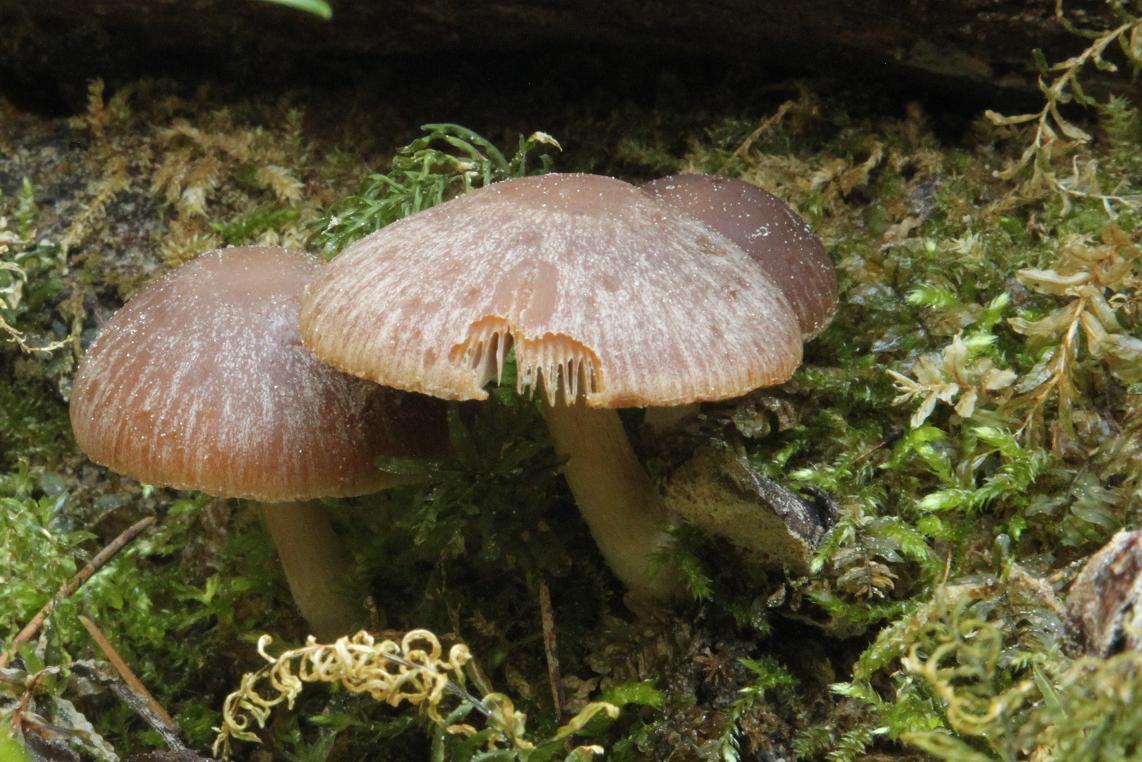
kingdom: Fungi
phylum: Basidiomycota
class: Agaricomycetes
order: Agaricales
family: Psathyrellaceae
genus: Psathyrella
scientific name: Psathyrella spadiceogrisea
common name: gråbrun mørkhat
